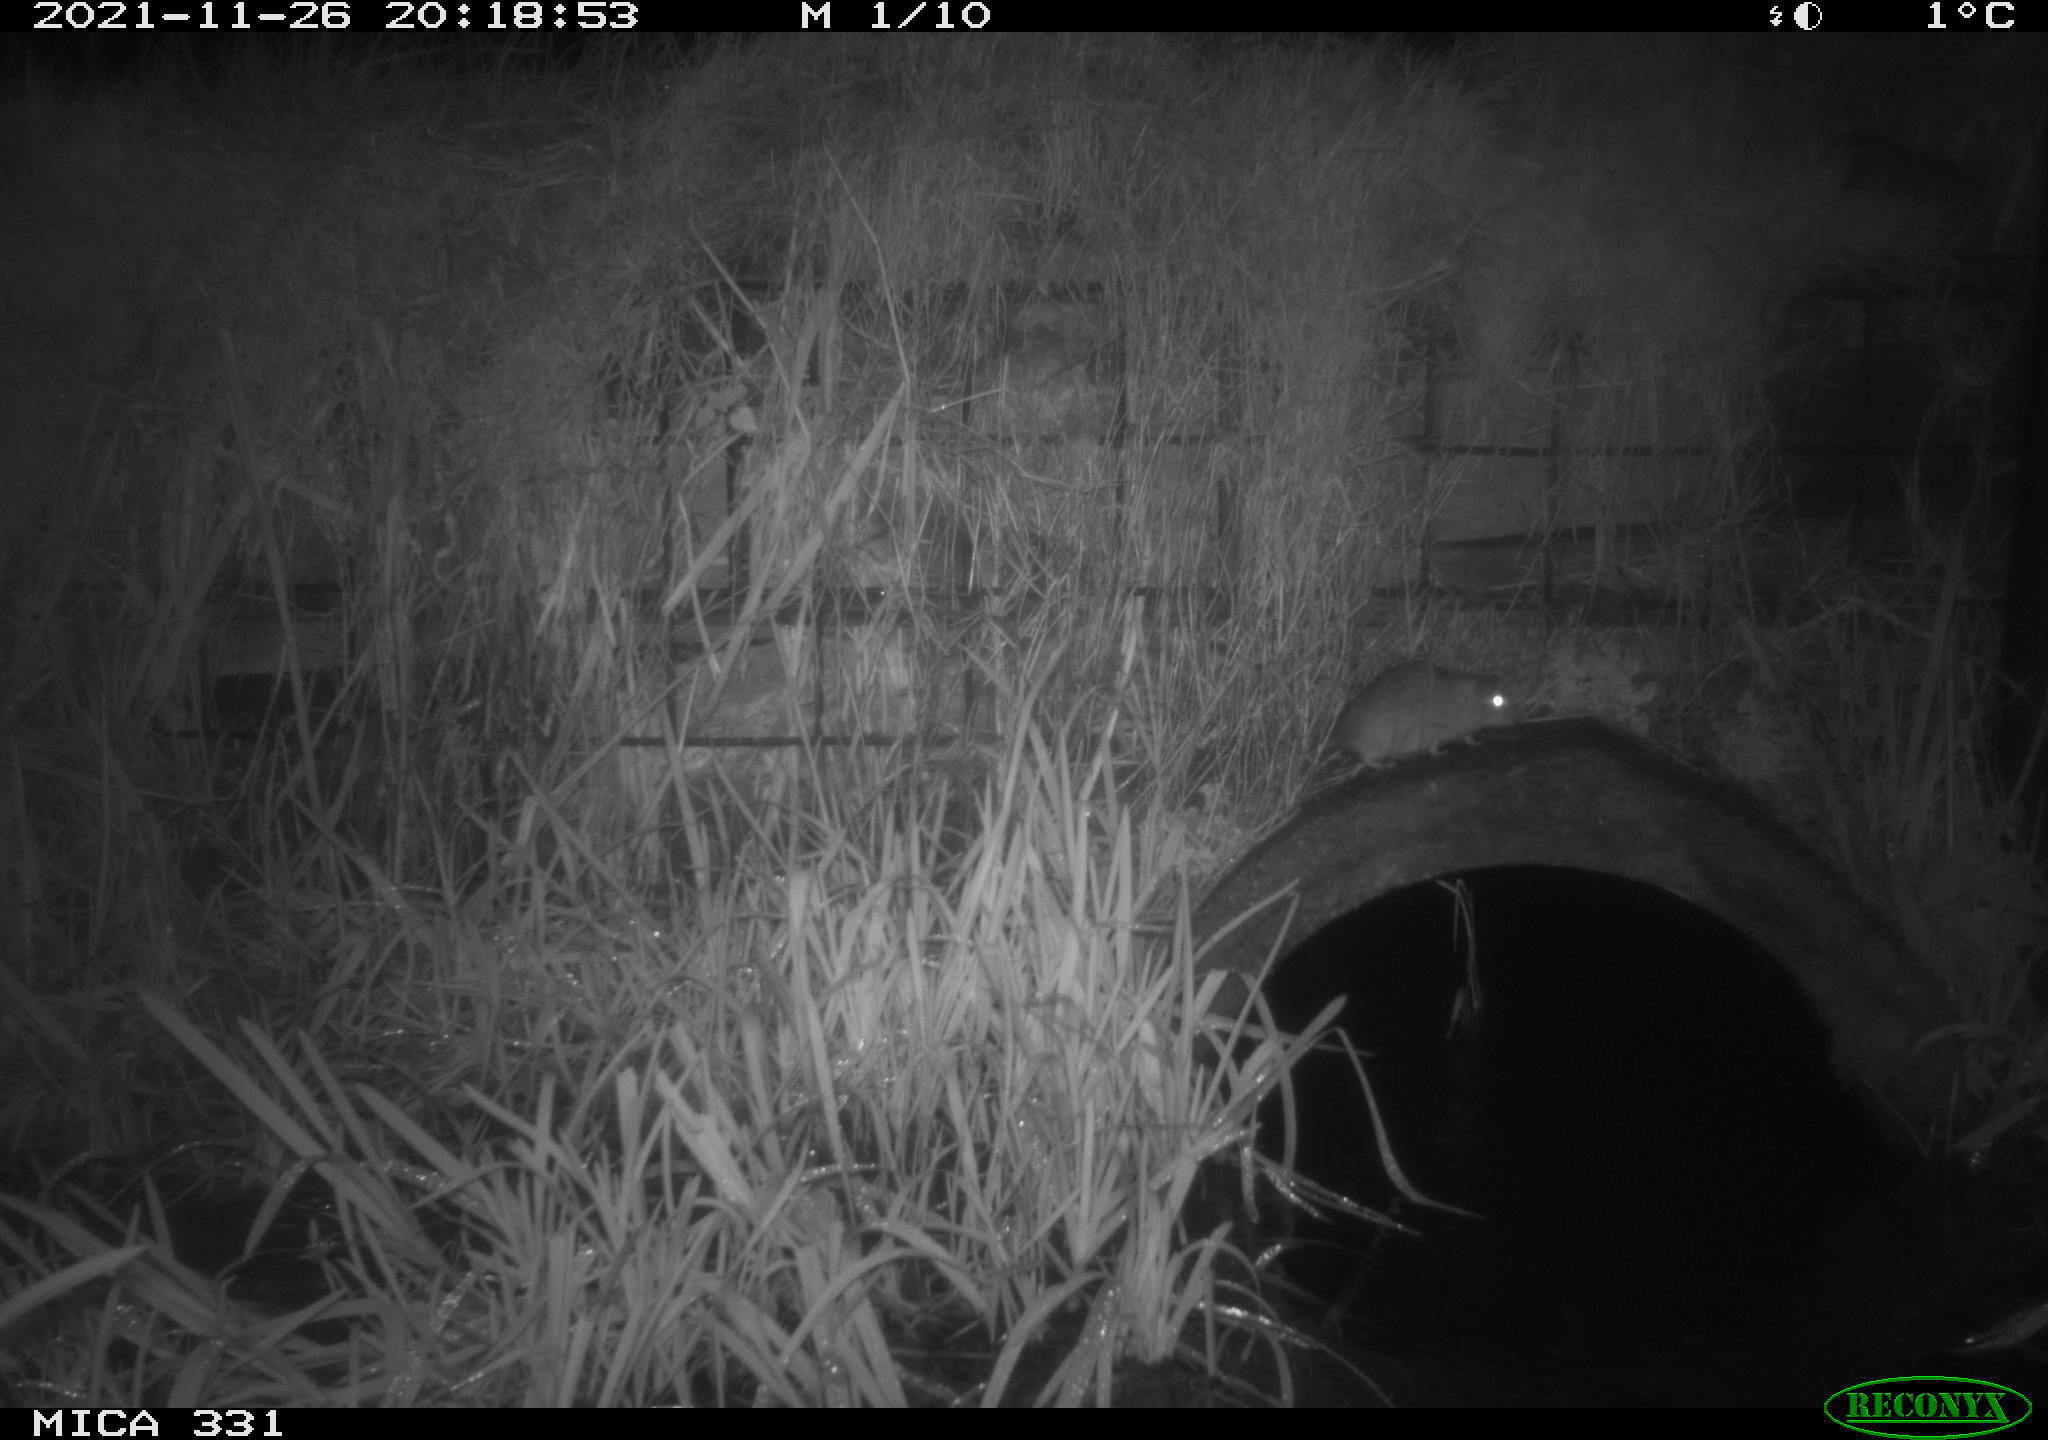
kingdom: Animalia
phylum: Chordata
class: Mammalia
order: Rodentia
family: Muridae
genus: Rattus
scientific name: Rattus norvegicus
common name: Brown rat
